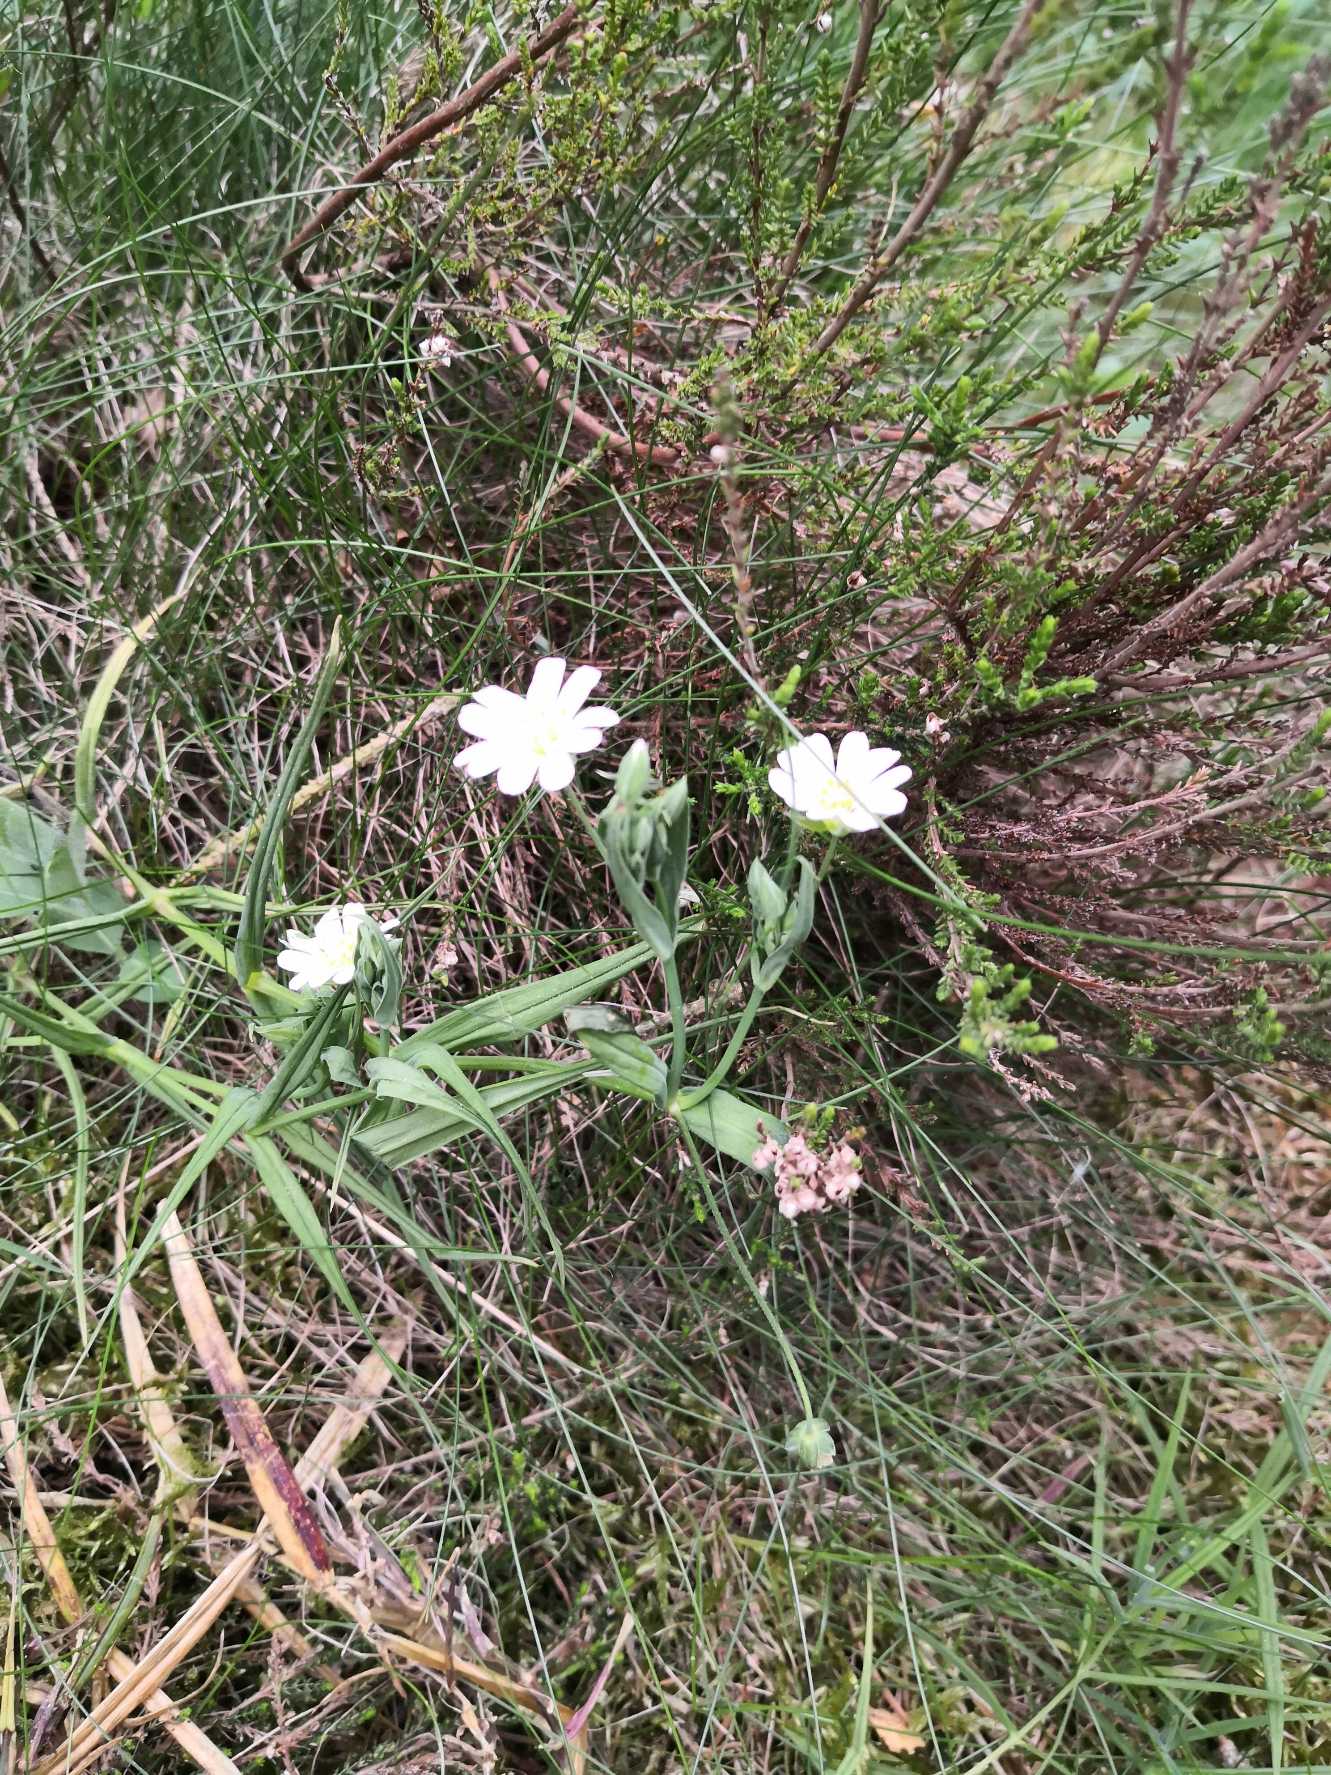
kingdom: Plantae
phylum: Tracheophyta
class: Magnoliopsida
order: Caryophyllales
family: Caryophyllaceae
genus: Rabelera
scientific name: Rabelera holostea
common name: Stor fladstjerne
